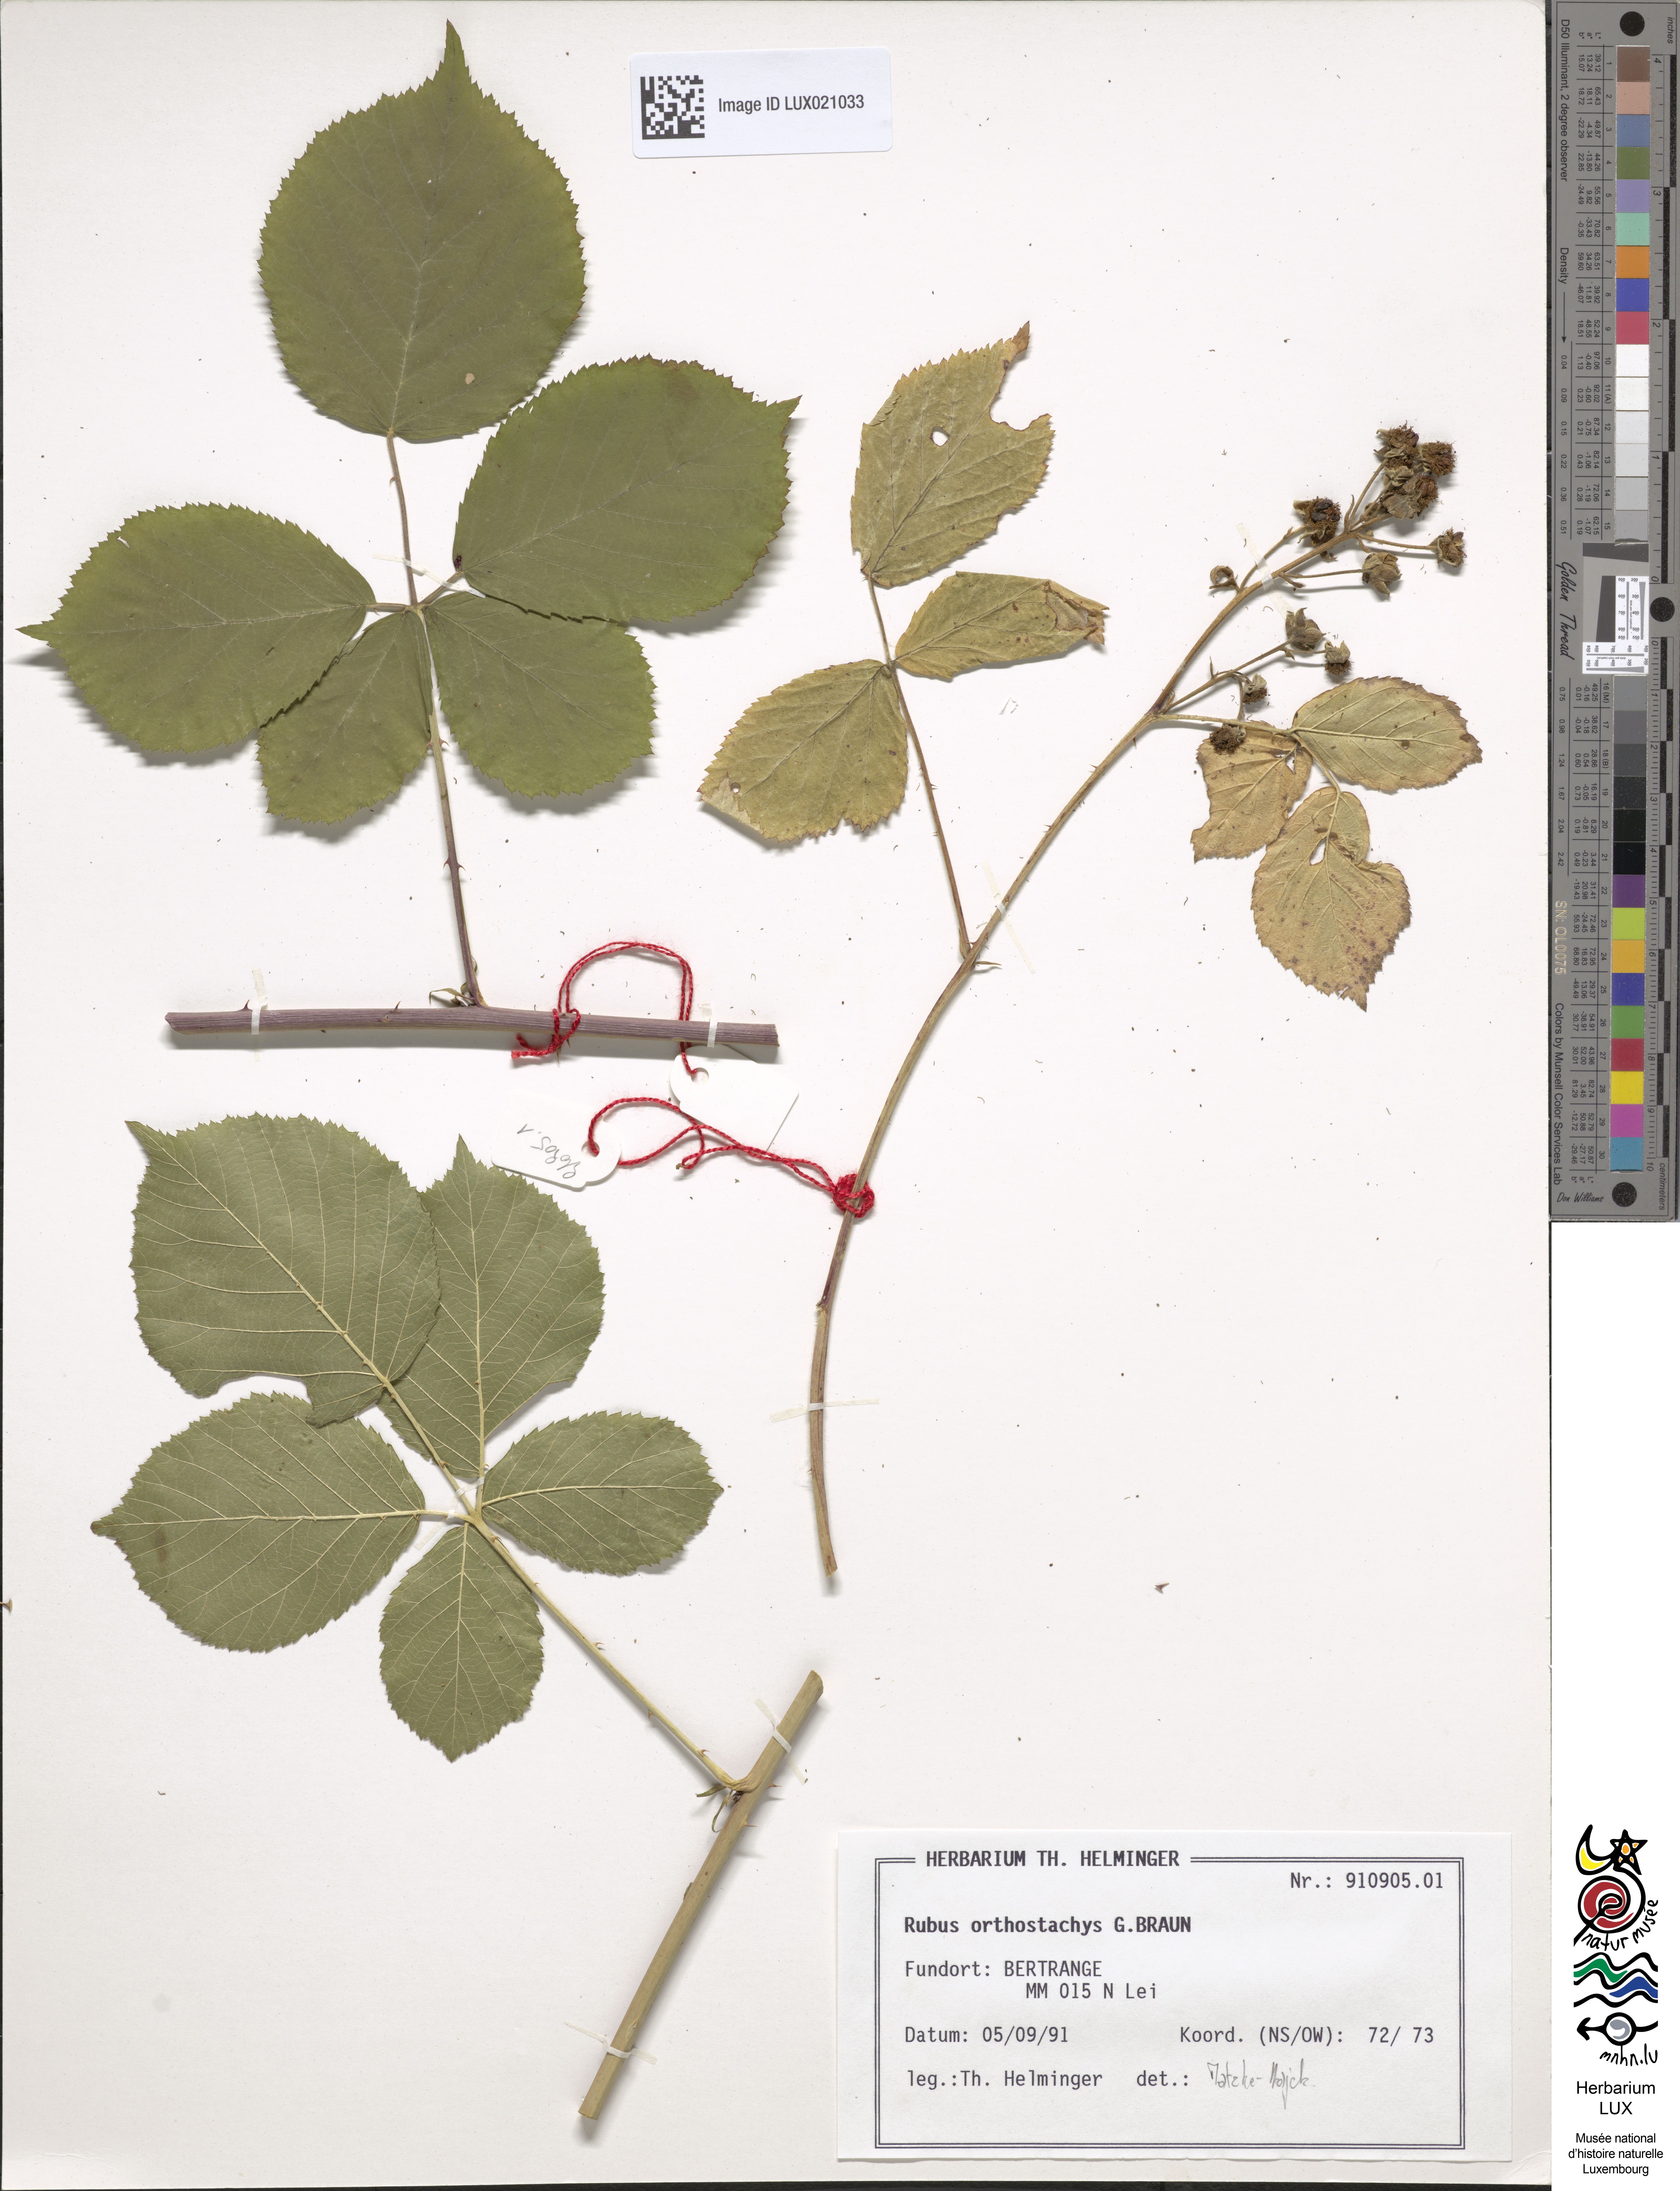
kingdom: Plantae
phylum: Tracheophyta
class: Magnoliopsida
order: Rosales
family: Rosaceae
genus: Rubus
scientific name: Rubus orthostachys
